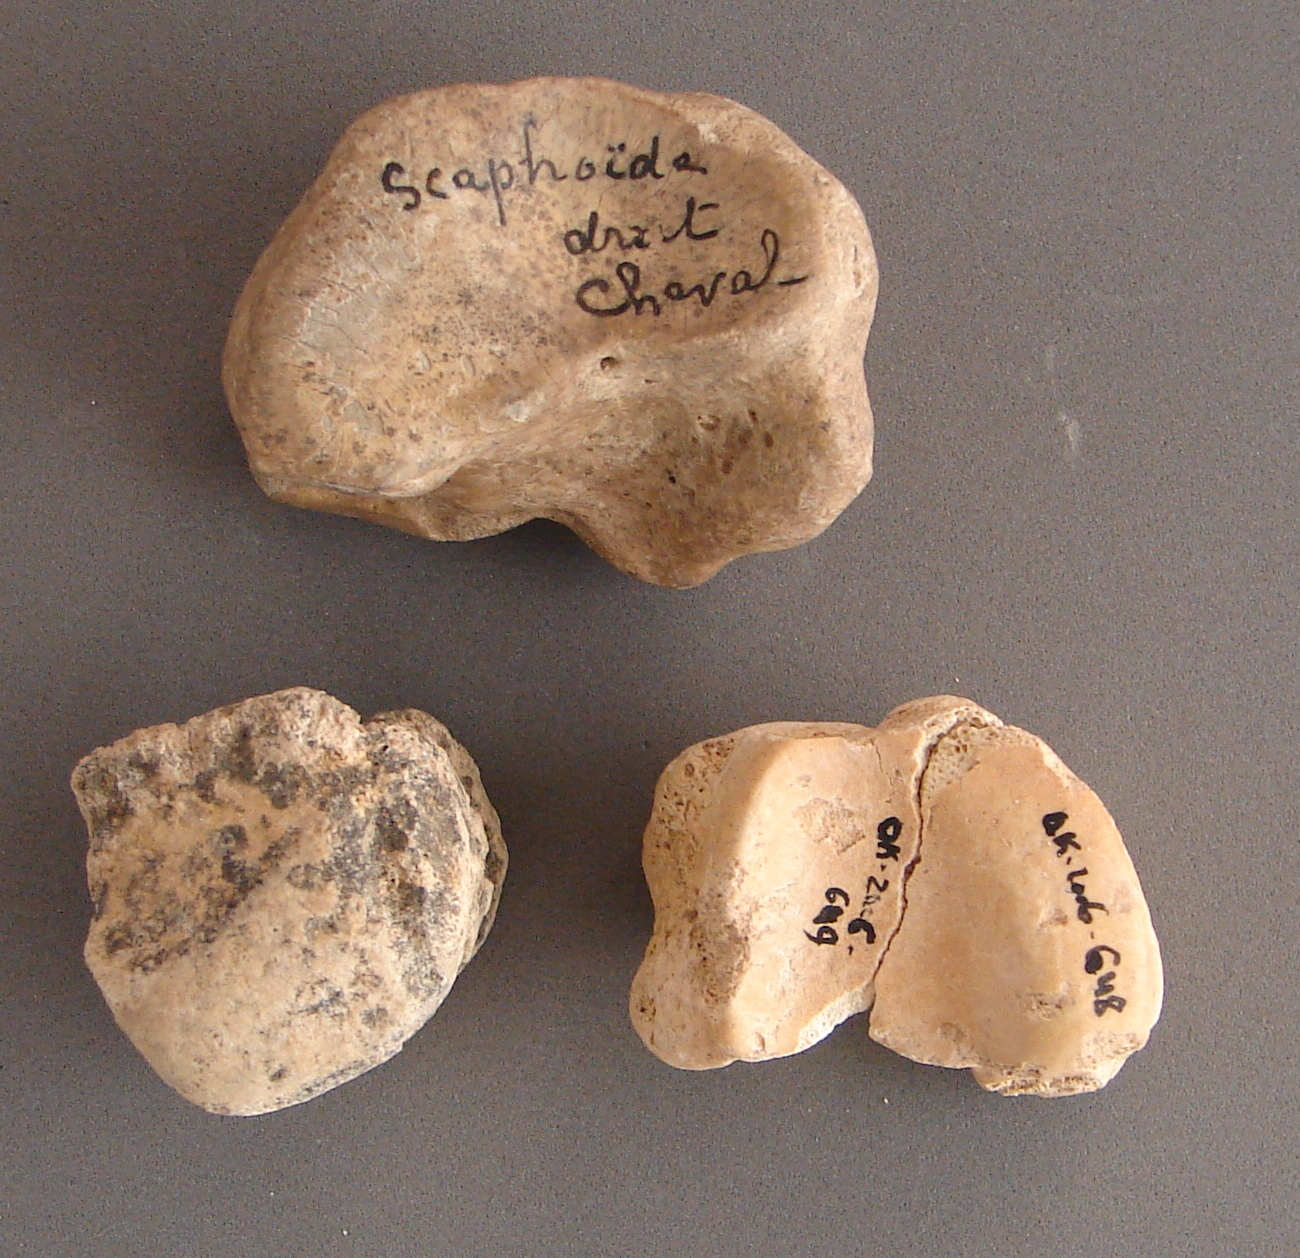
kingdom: Animalia
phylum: Chordata
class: Mammalia
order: Perissodactyla
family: Equidae
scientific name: Equidae
